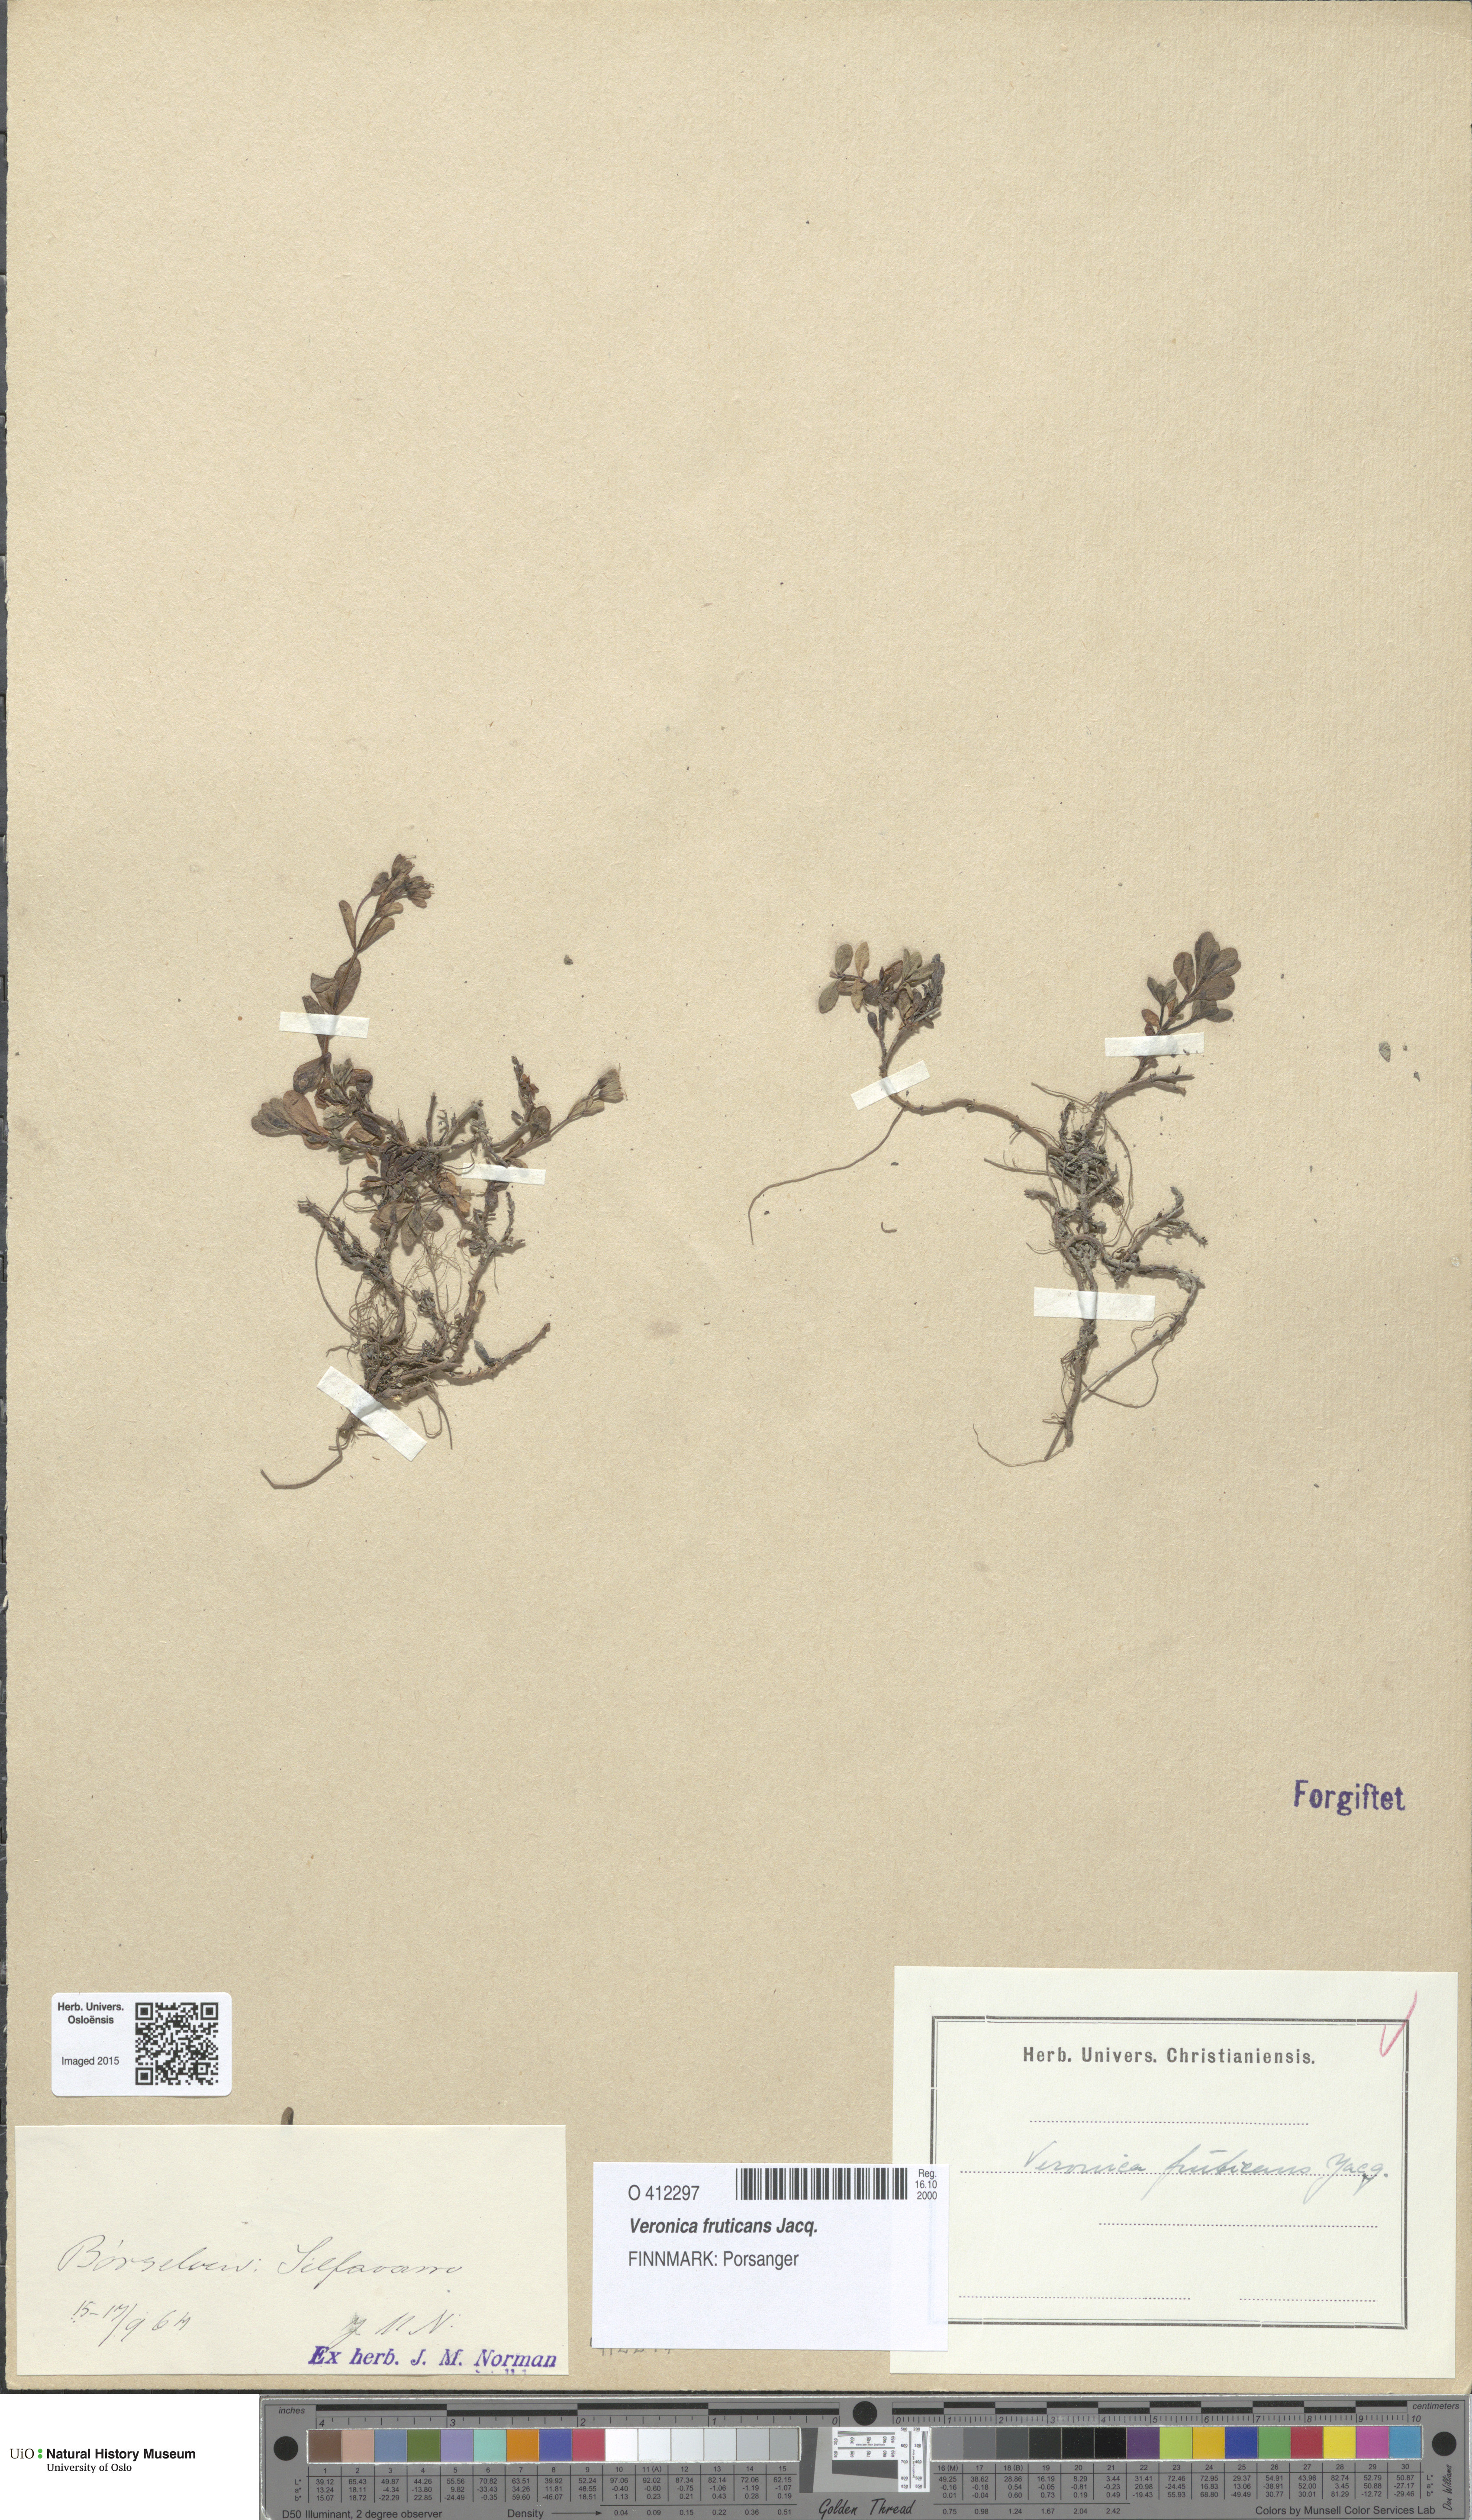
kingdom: Plantae
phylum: Tracheophyta
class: Magnoliopsida
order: Lamiales
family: Plantaginaceae
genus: Veronica
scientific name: Veronica fruticans
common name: Rock speedwell
